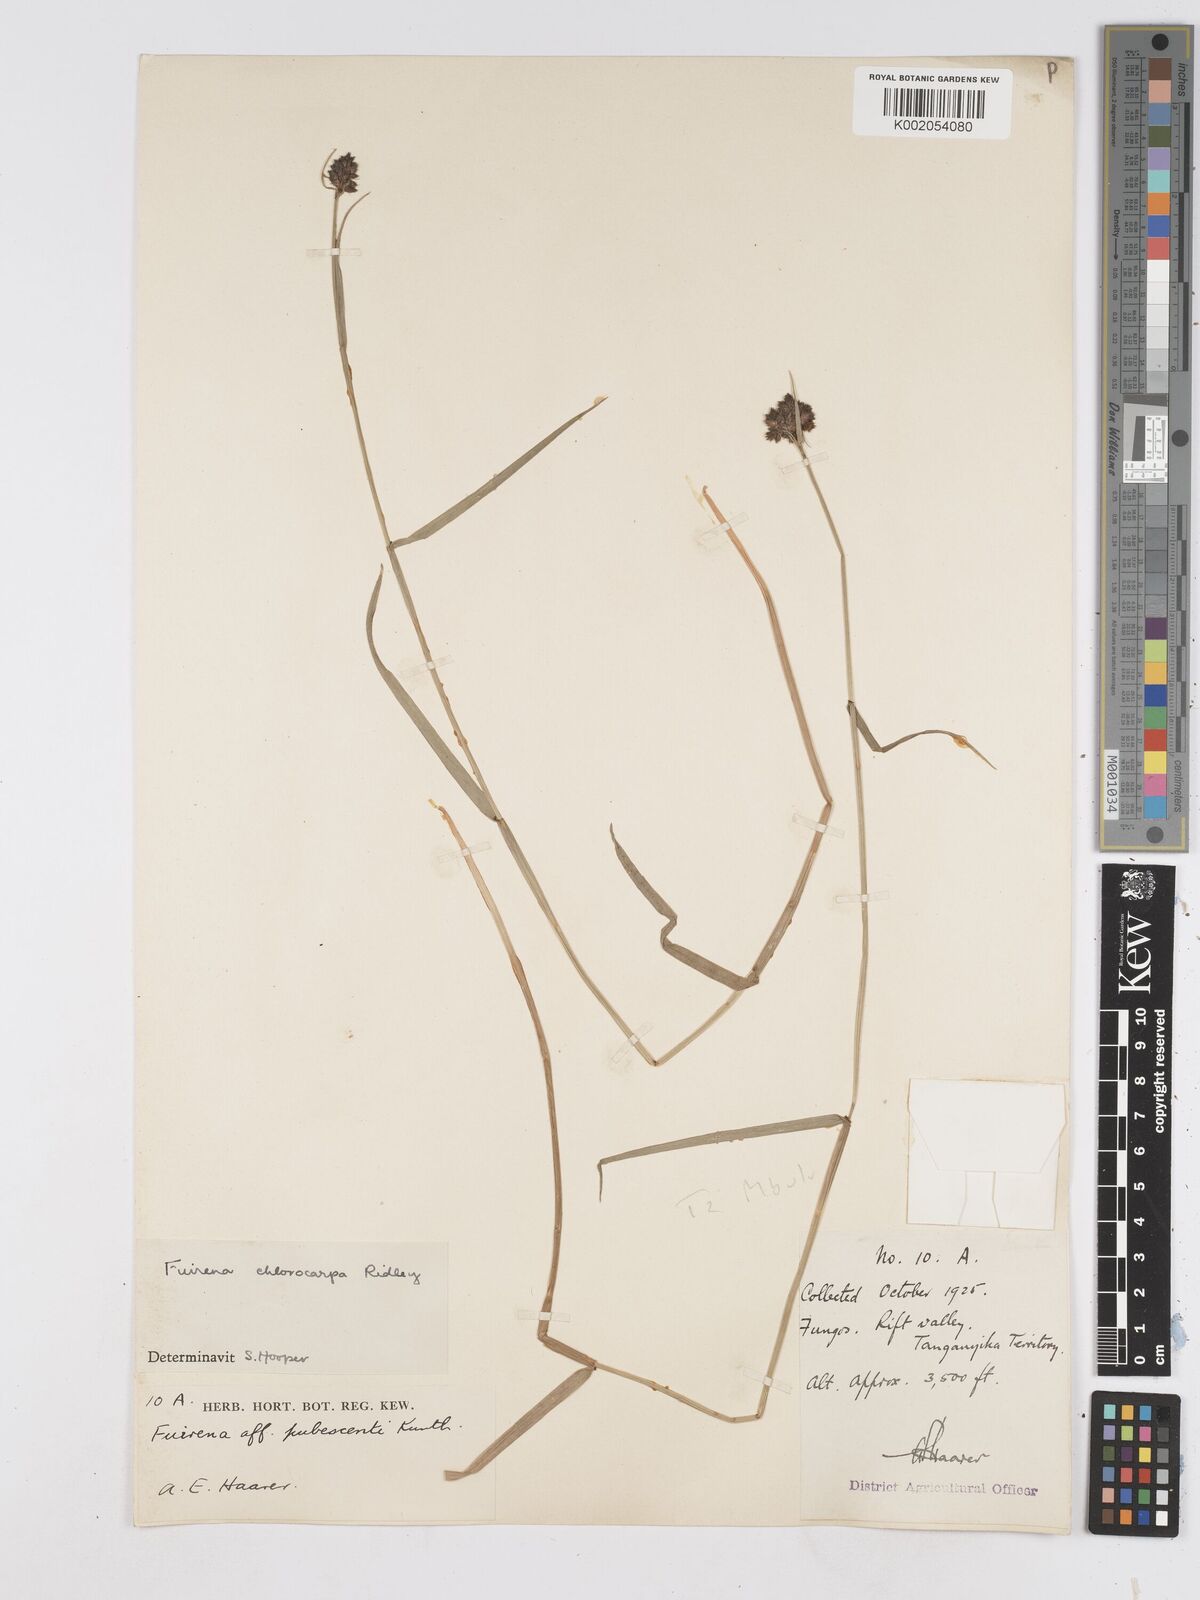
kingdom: Plantae
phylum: Tracheophyta
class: Liliopsida
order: Poales
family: Cyperaceae
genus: Fuirena
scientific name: Fuirena stricta
